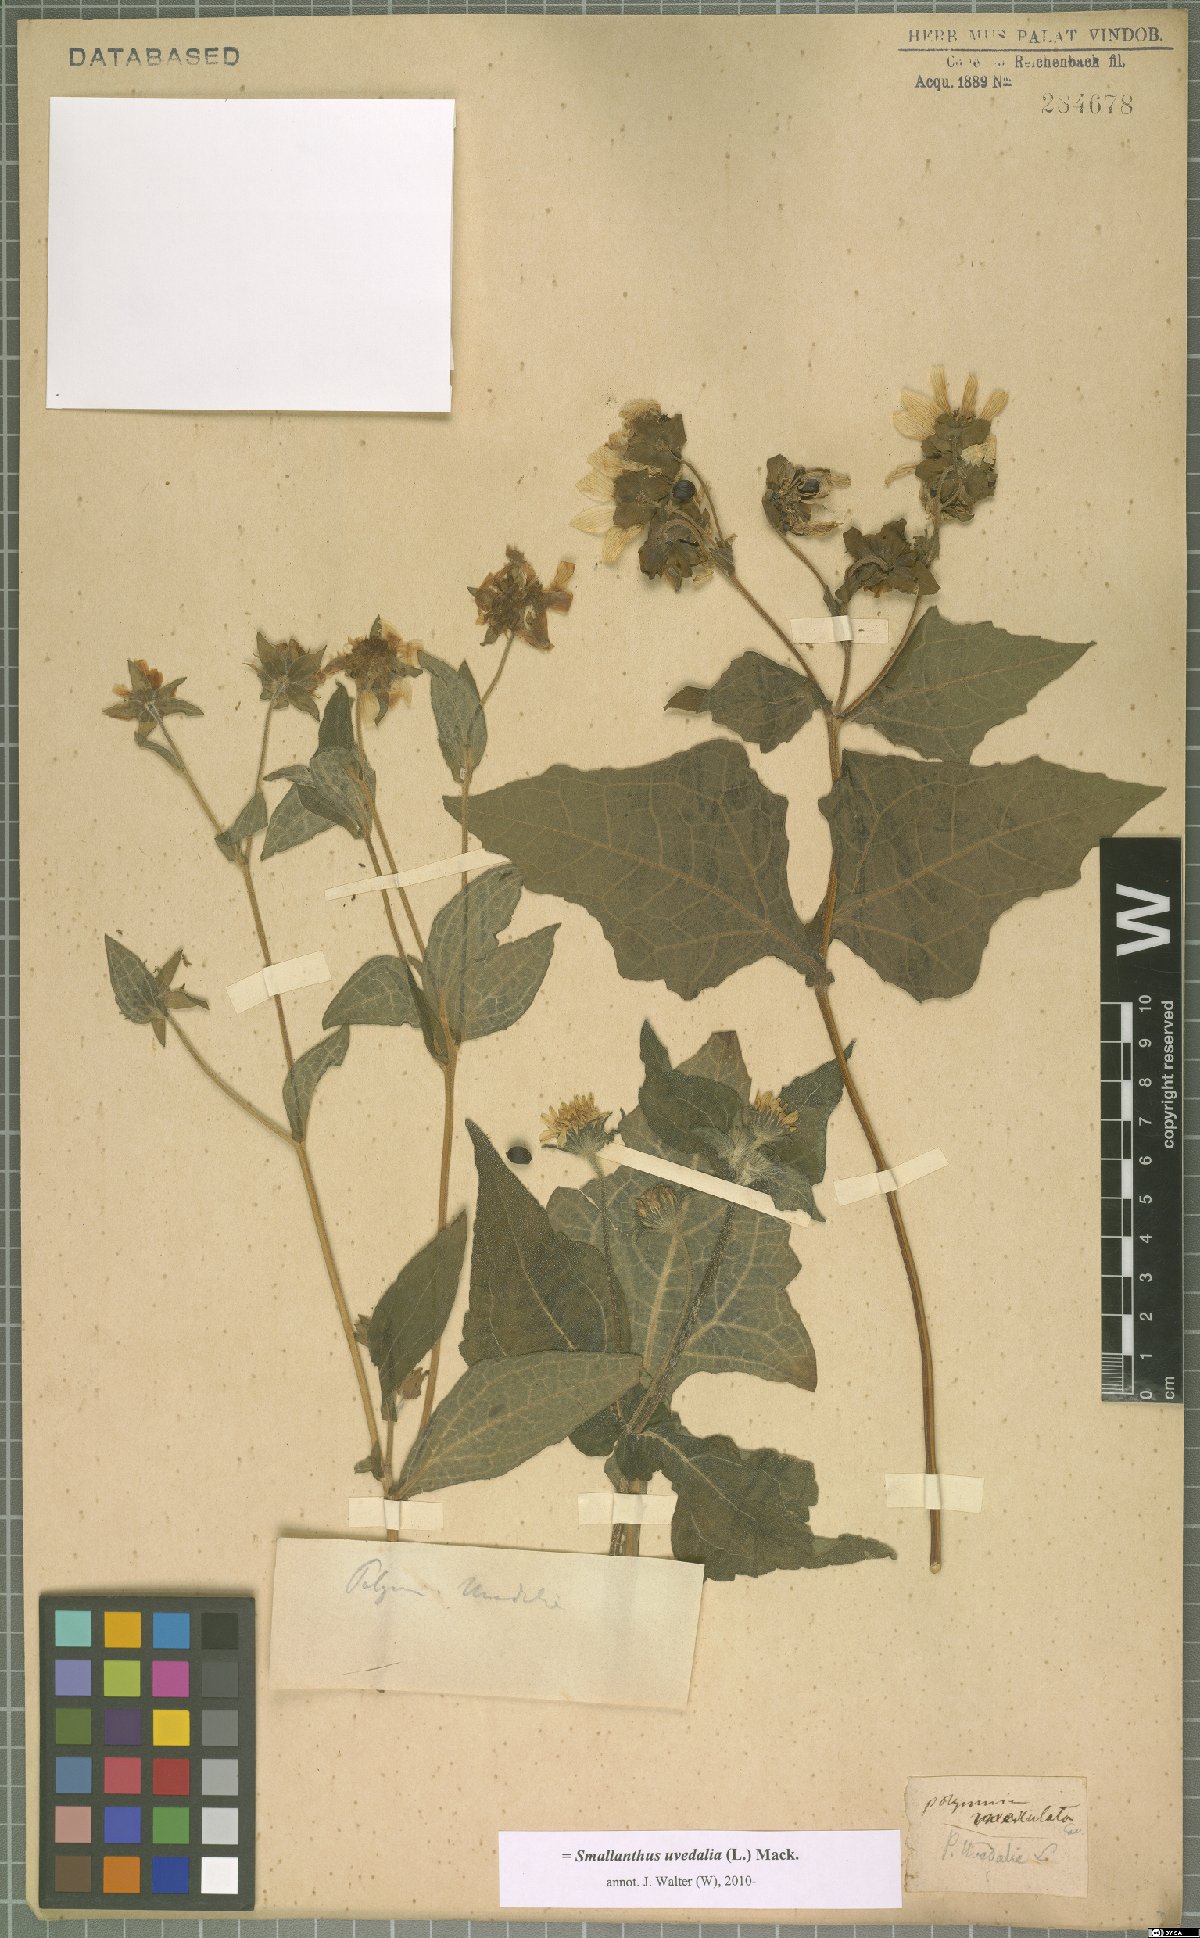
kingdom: Plantae
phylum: Tracheophyta
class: Magnoliopsida
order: Asterales
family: Asteraceae
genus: Smallanthus
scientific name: Smallanthus uvedalia
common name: Bear's-foot
